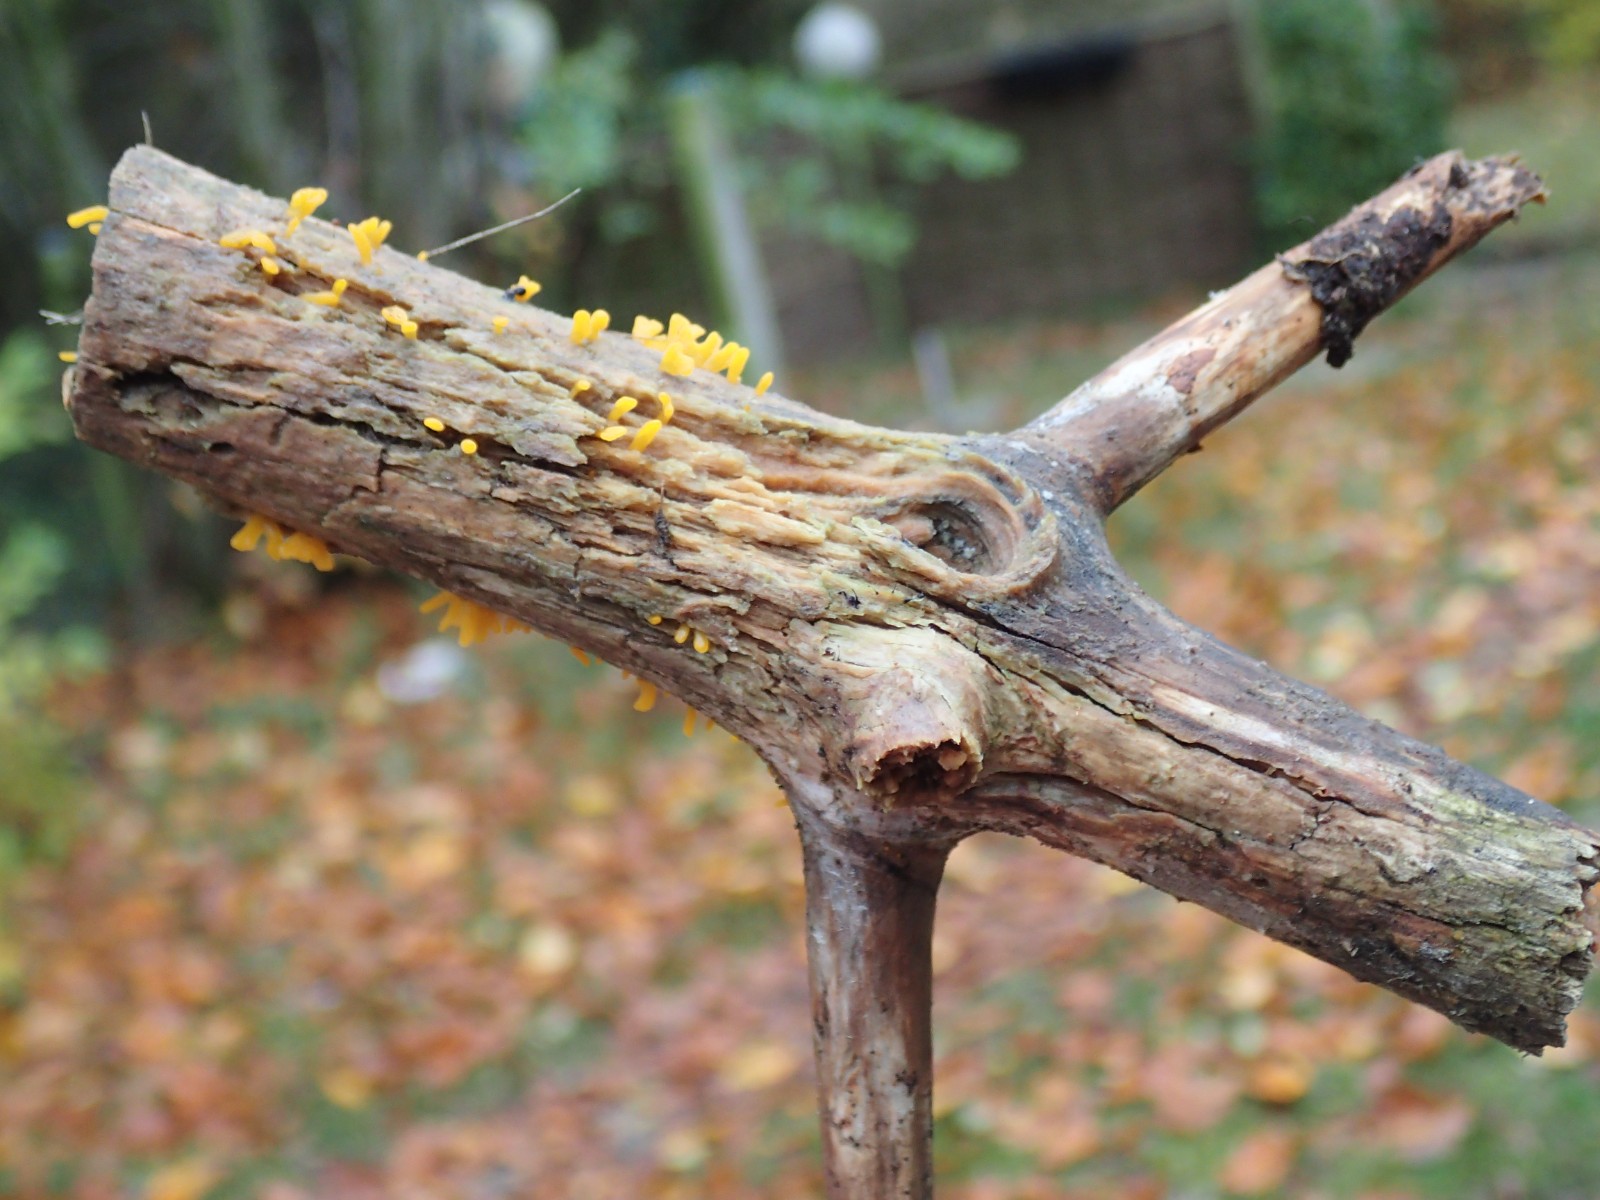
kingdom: Fungi
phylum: Basidiomycota
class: Dacrymycetes
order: Dacrymycetales
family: Dacrymycetaceae
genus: Calocera
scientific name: Calocera furcata
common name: fyrre-guldgaffel
